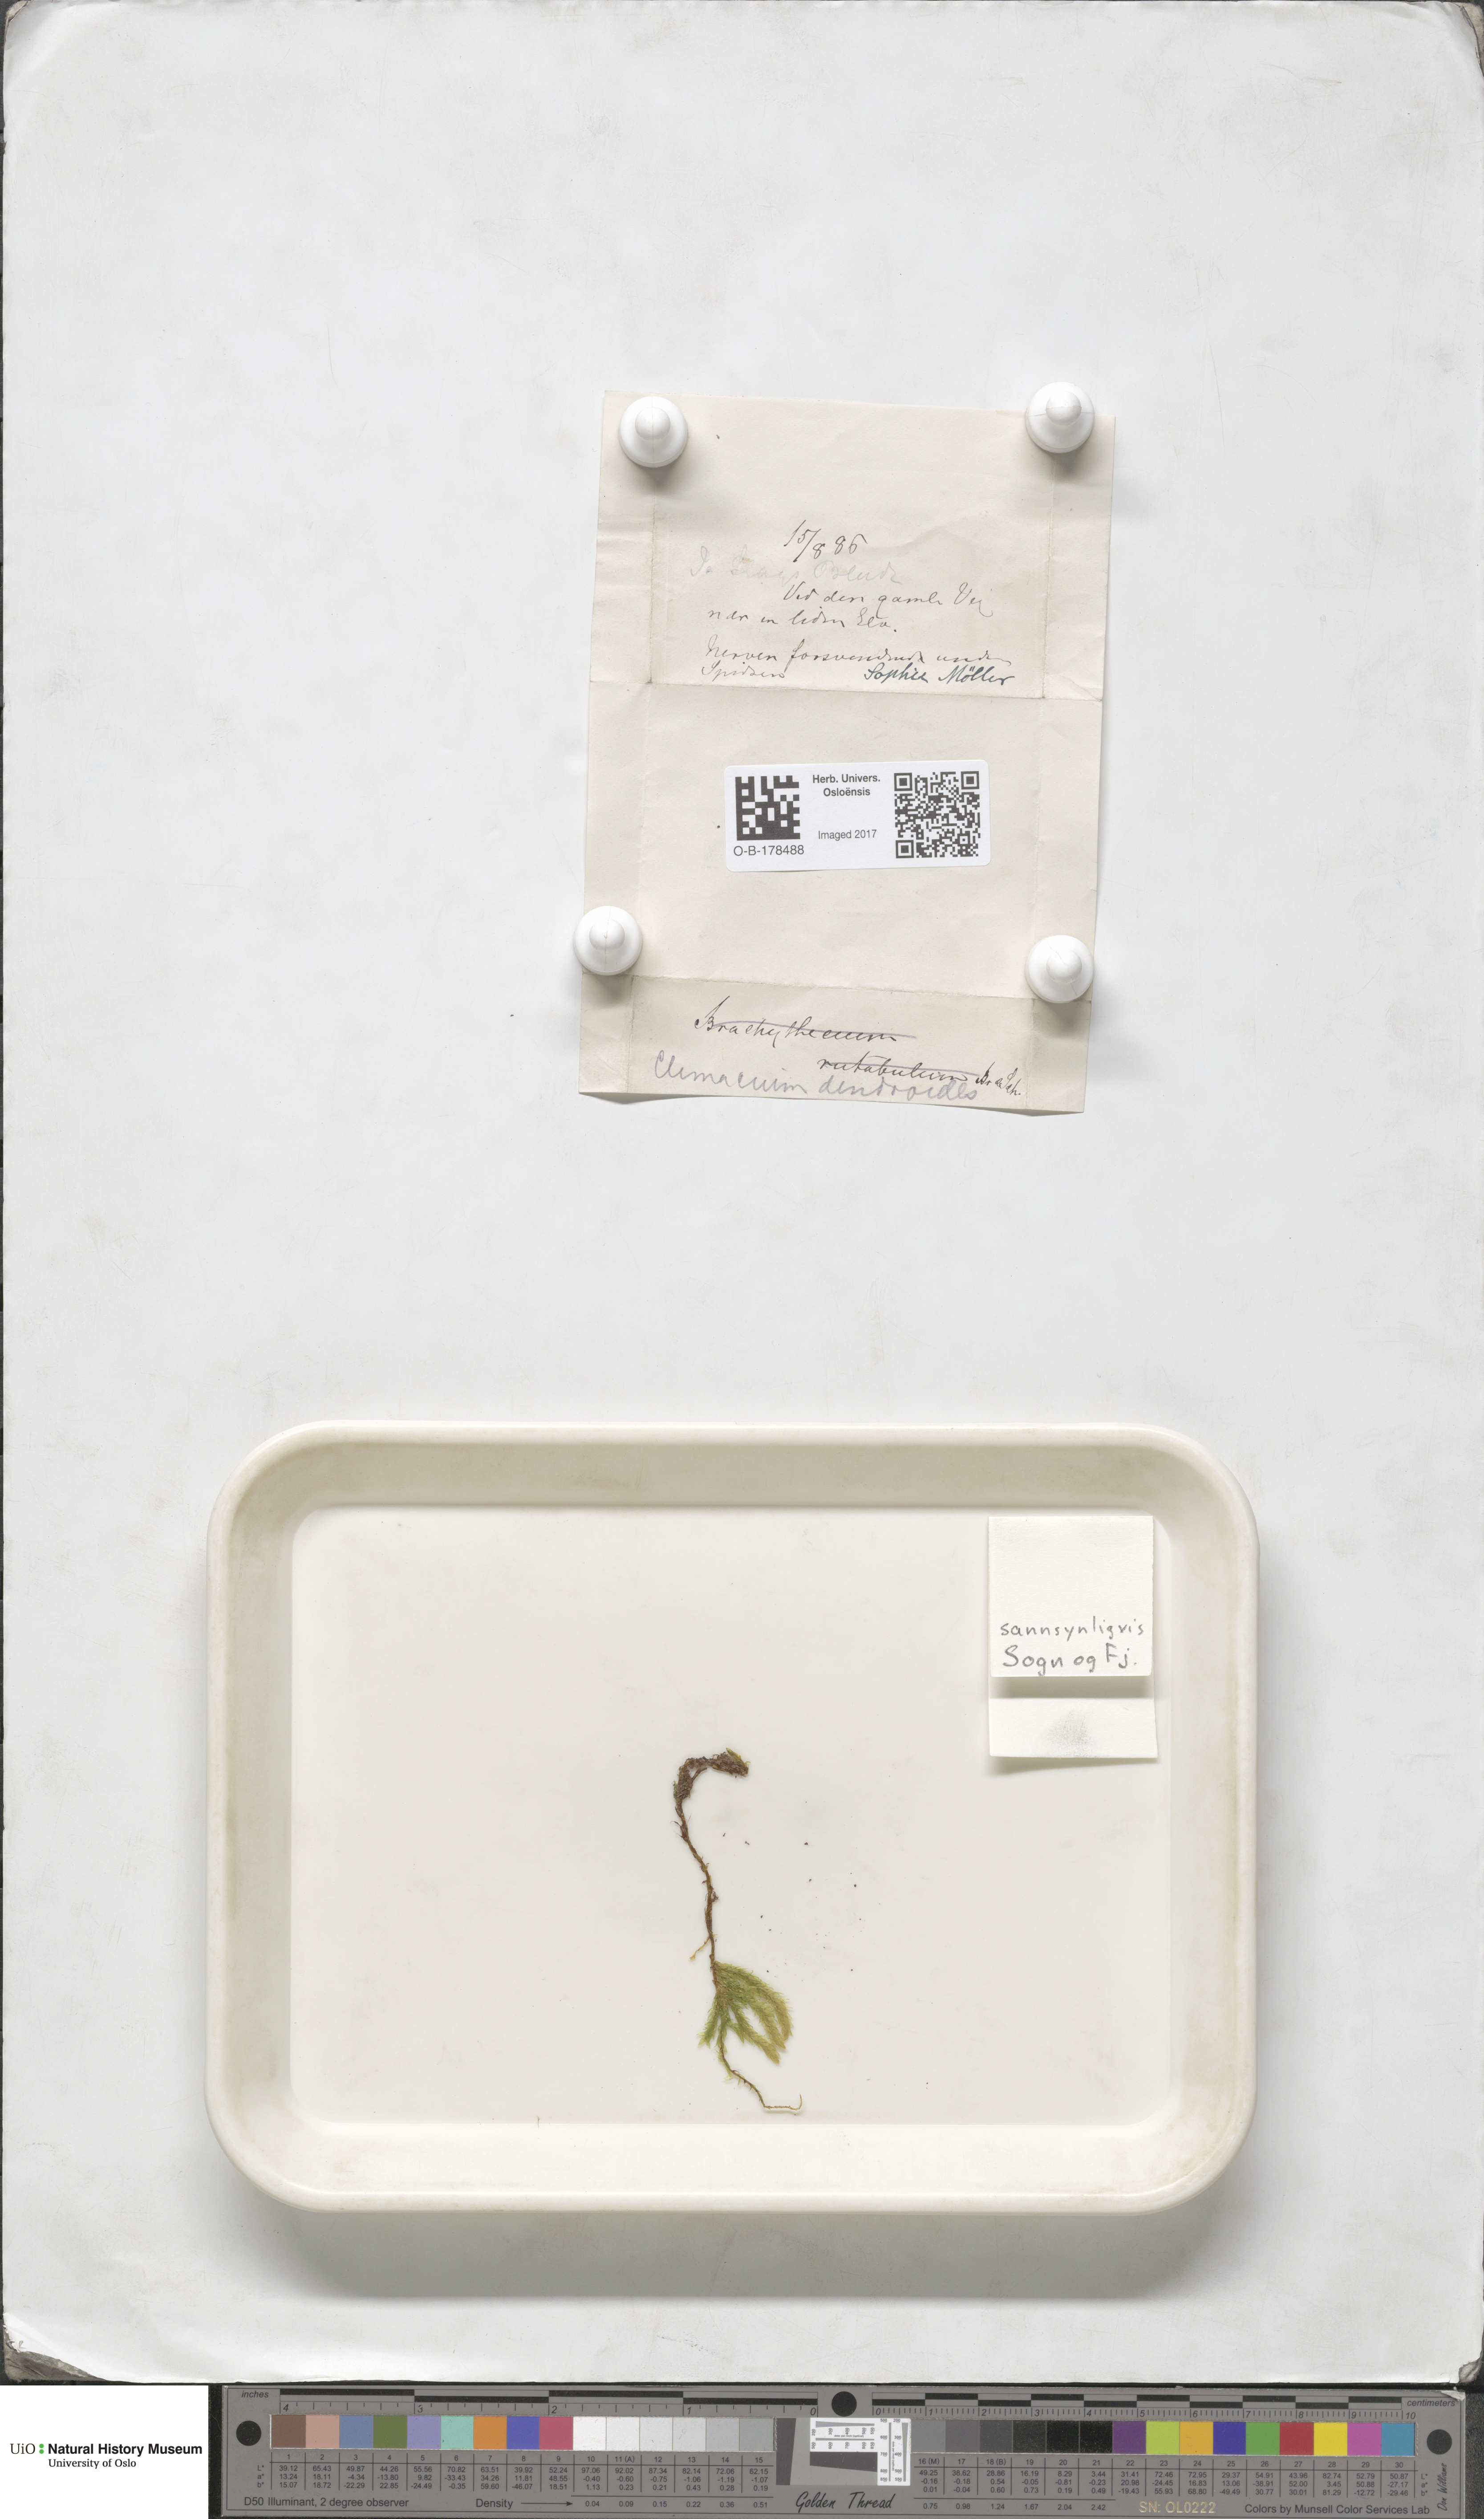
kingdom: Plantae
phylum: Bryophyta
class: Bryopsida
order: Hypnales
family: Climaciaceae
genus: Climacium
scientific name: Climacium dendroides
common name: Northern tree moss
